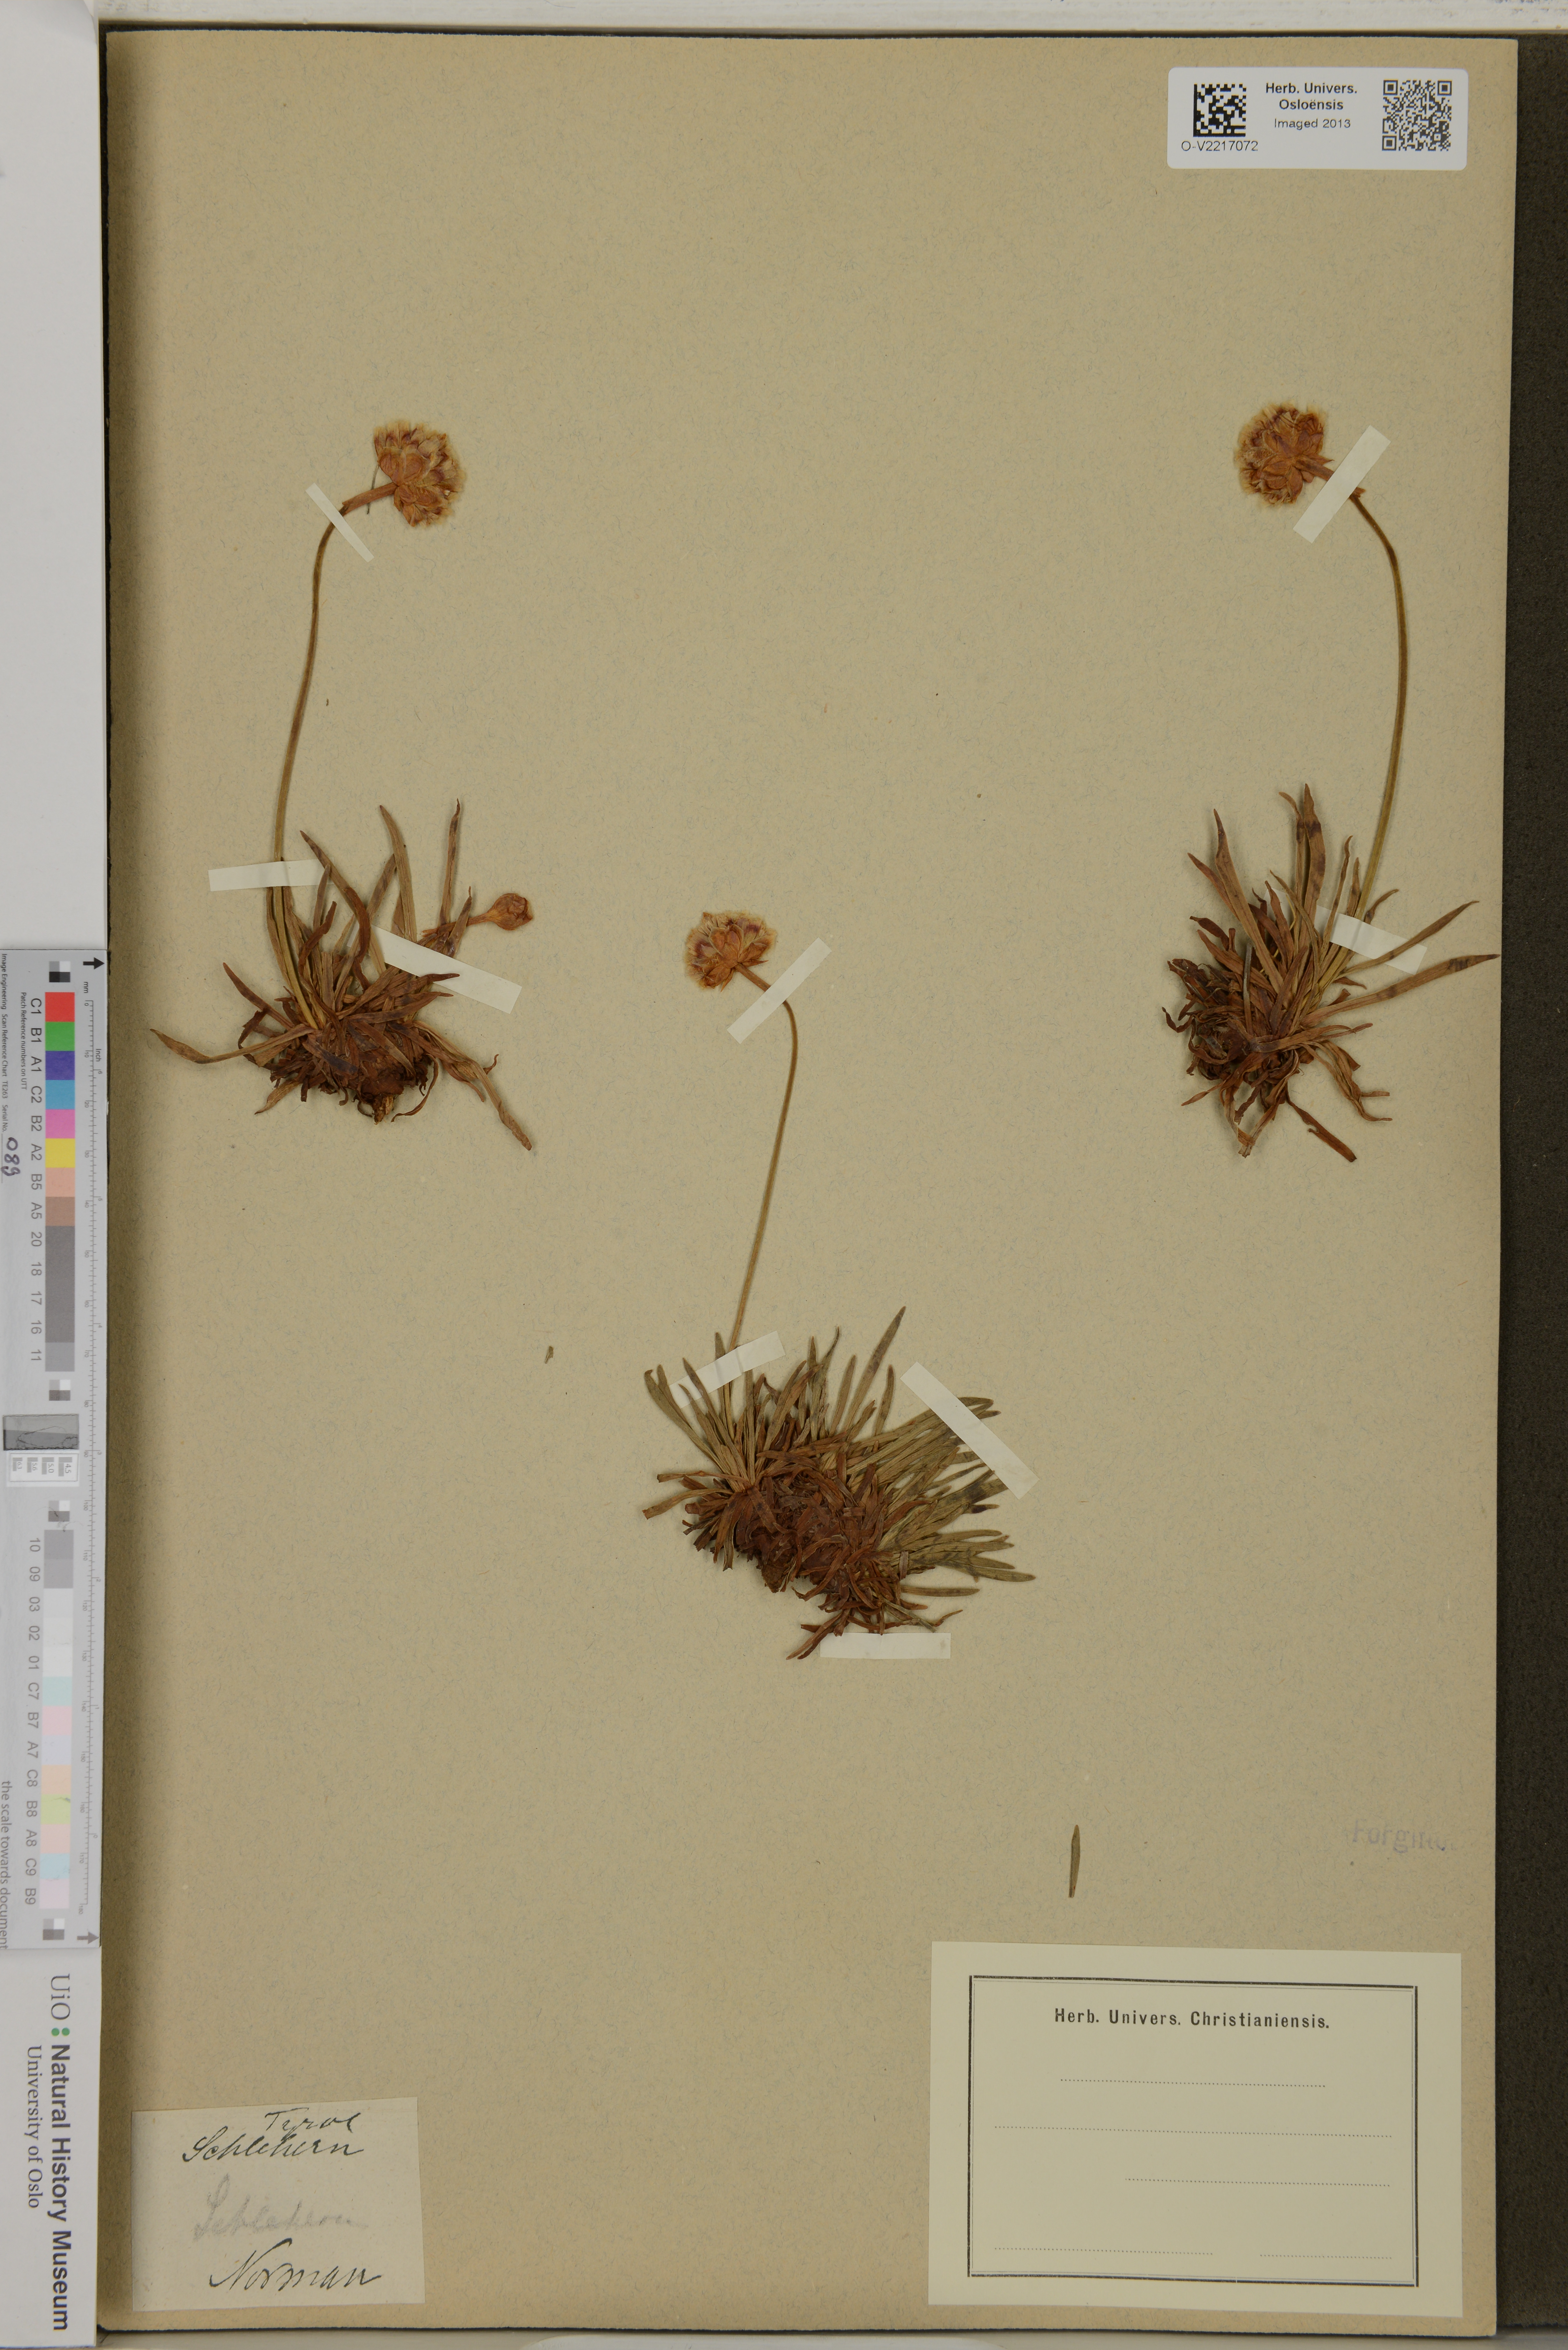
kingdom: Plantae
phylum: Tracheophyta
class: Magnoliopsida
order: Caryophyllales
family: Plumbaginaceae
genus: Armeria
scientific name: Armeria
